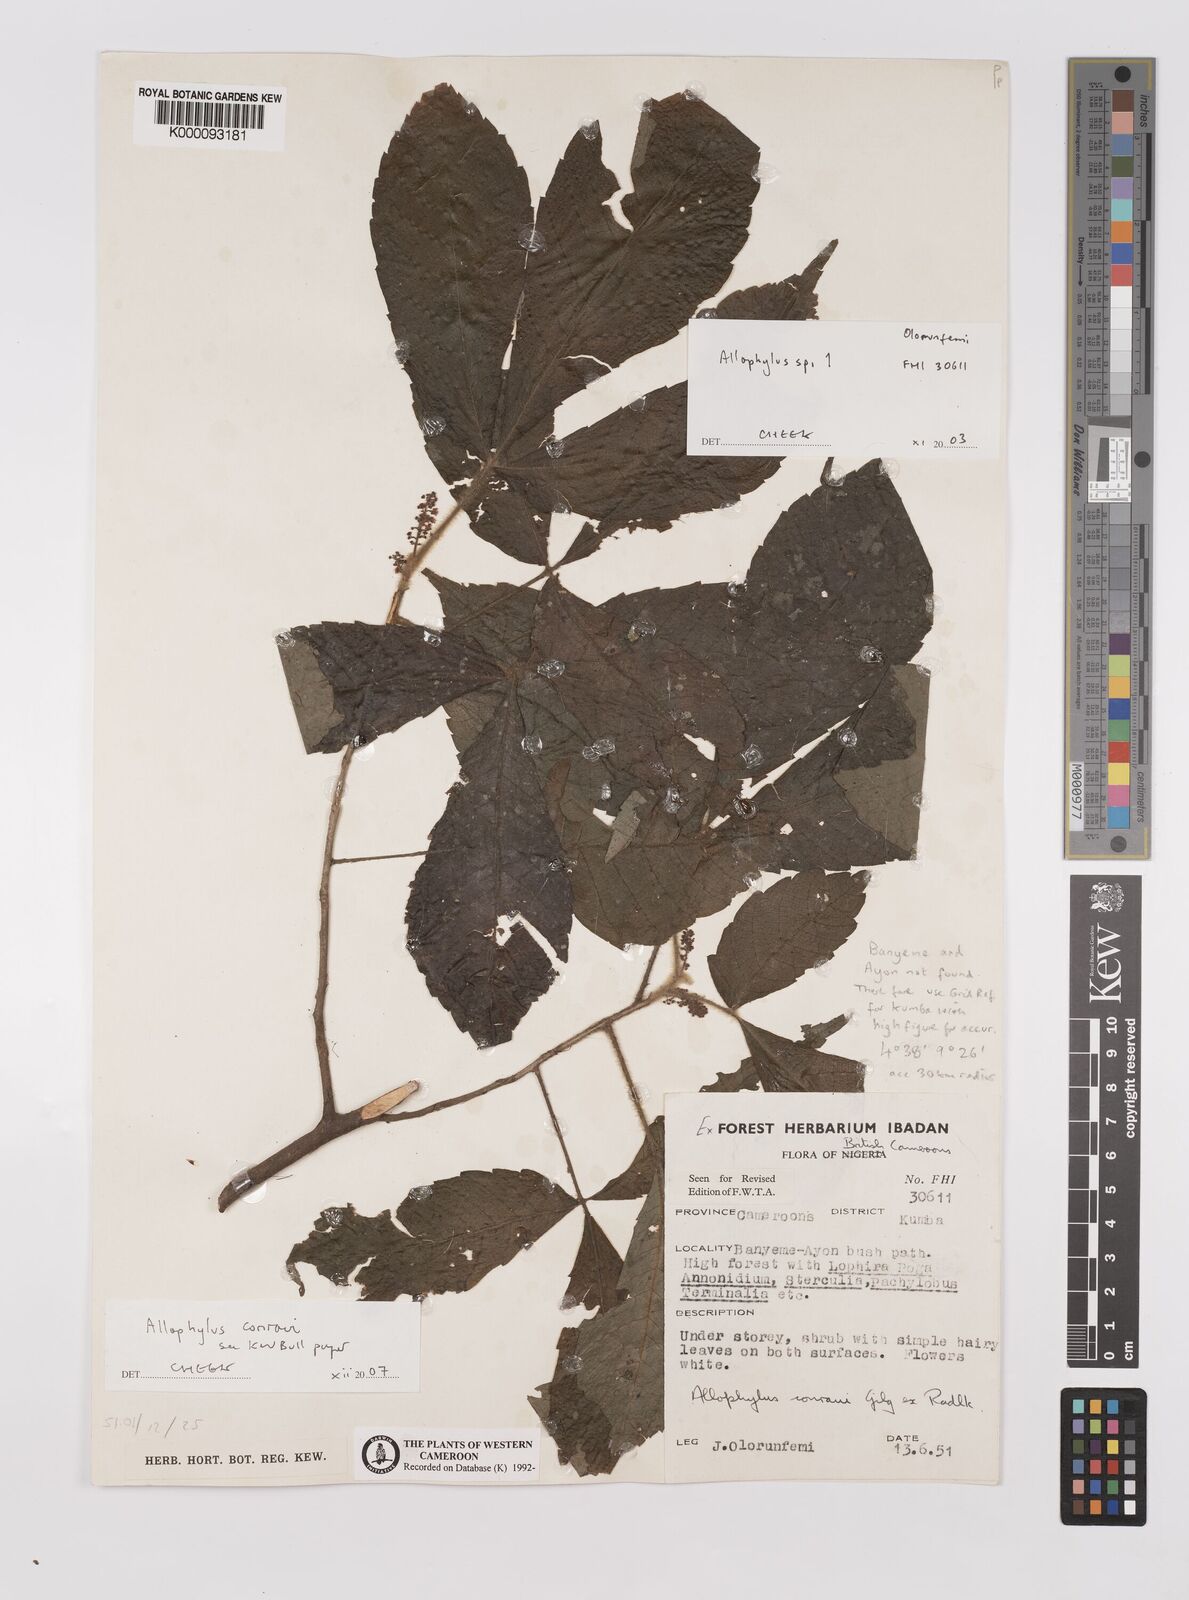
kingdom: Plantae
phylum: Tracheophyta
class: Magnoliopsida
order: Sapindales
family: Sapindaceae
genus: Allophylus
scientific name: Allophylus conraui
